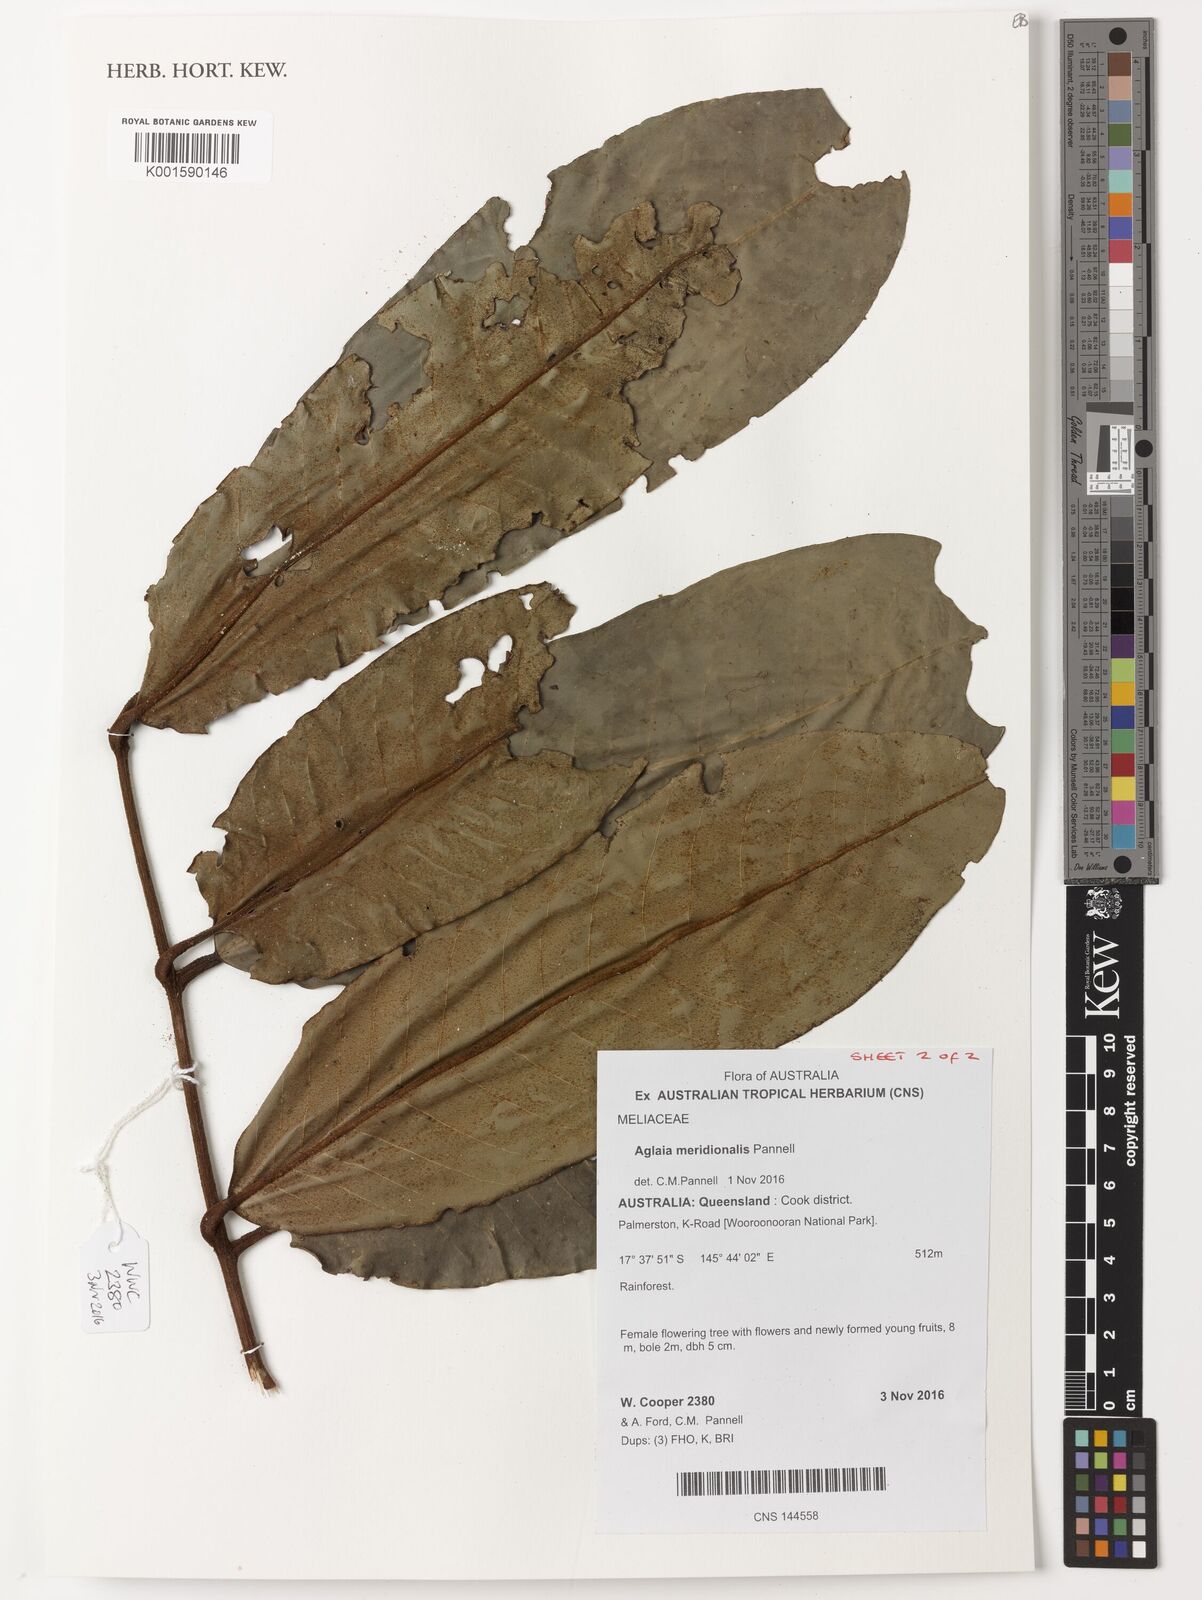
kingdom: Plantae
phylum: Tracheophyta
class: Magnoliopsida
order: Sapindales
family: Meliaceae
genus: Aglaia
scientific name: Aglaia meridionalis
